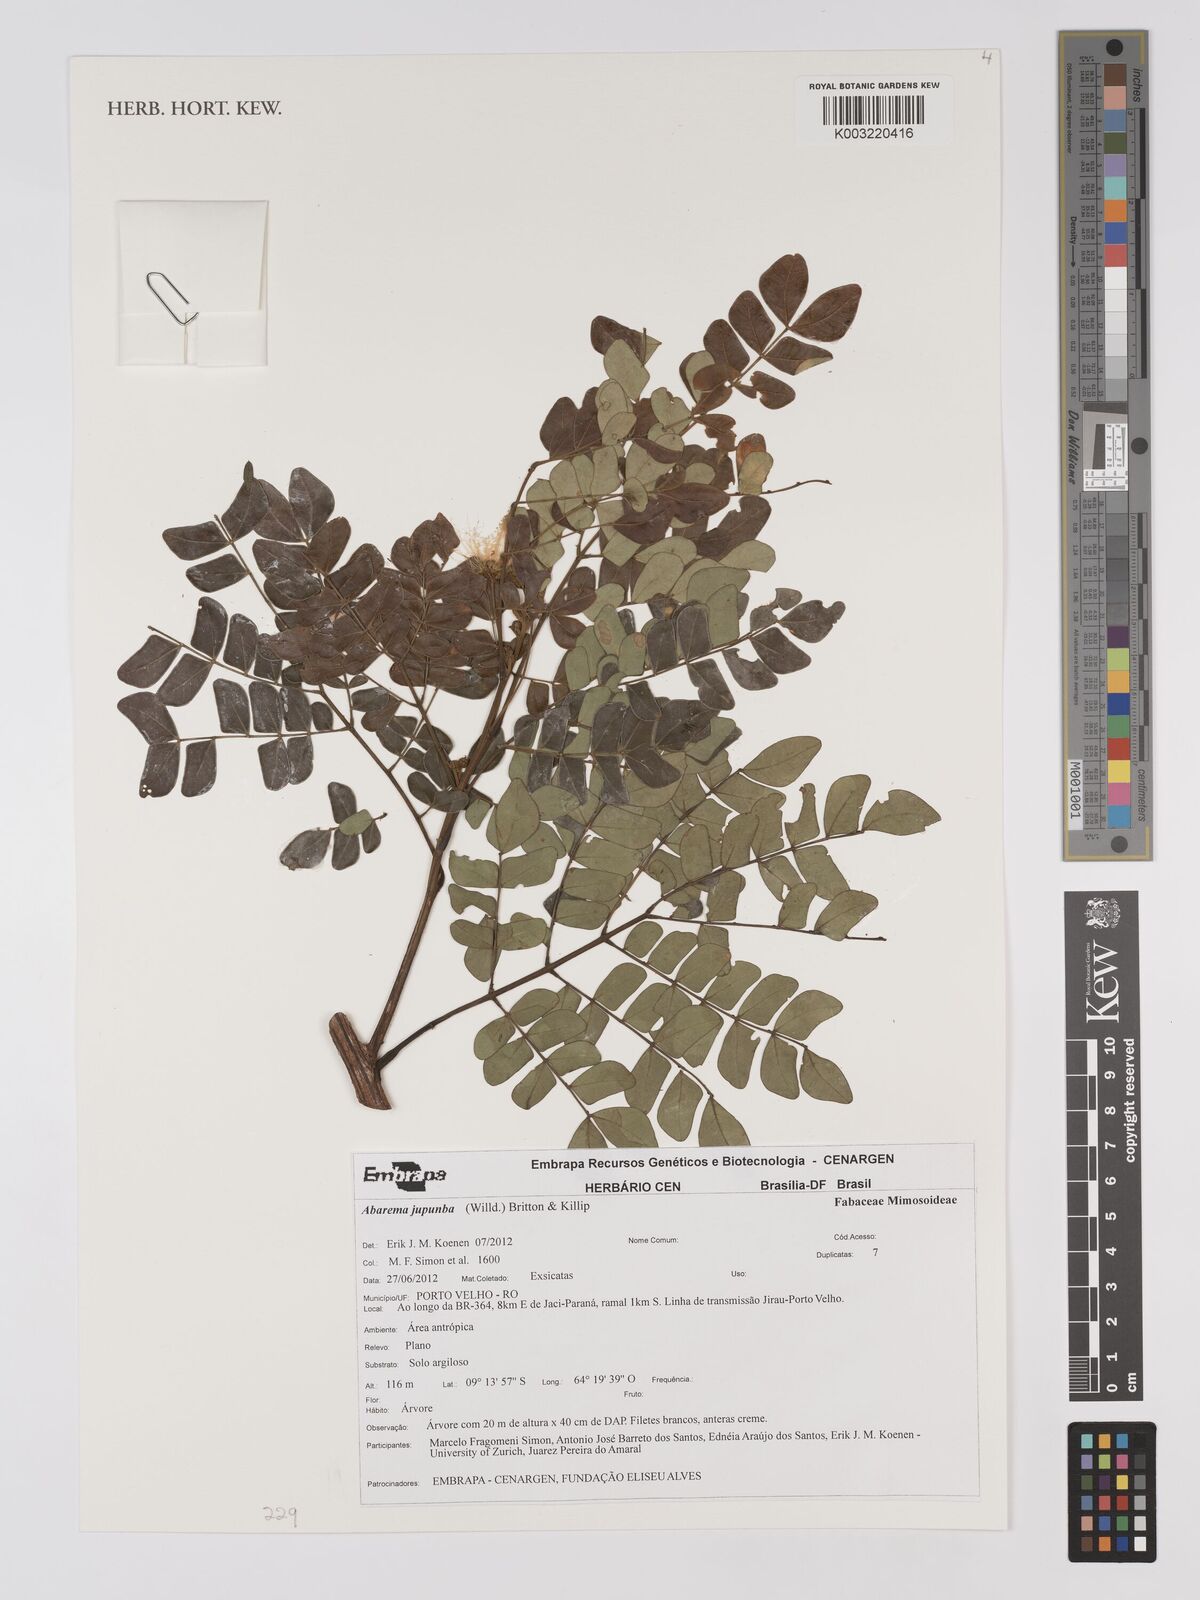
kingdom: Plantae
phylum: Tracheophyta
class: Magnoliopsida
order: Fabales
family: Fabaceae
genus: Jupunba
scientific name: Jupunba trapezifolia
